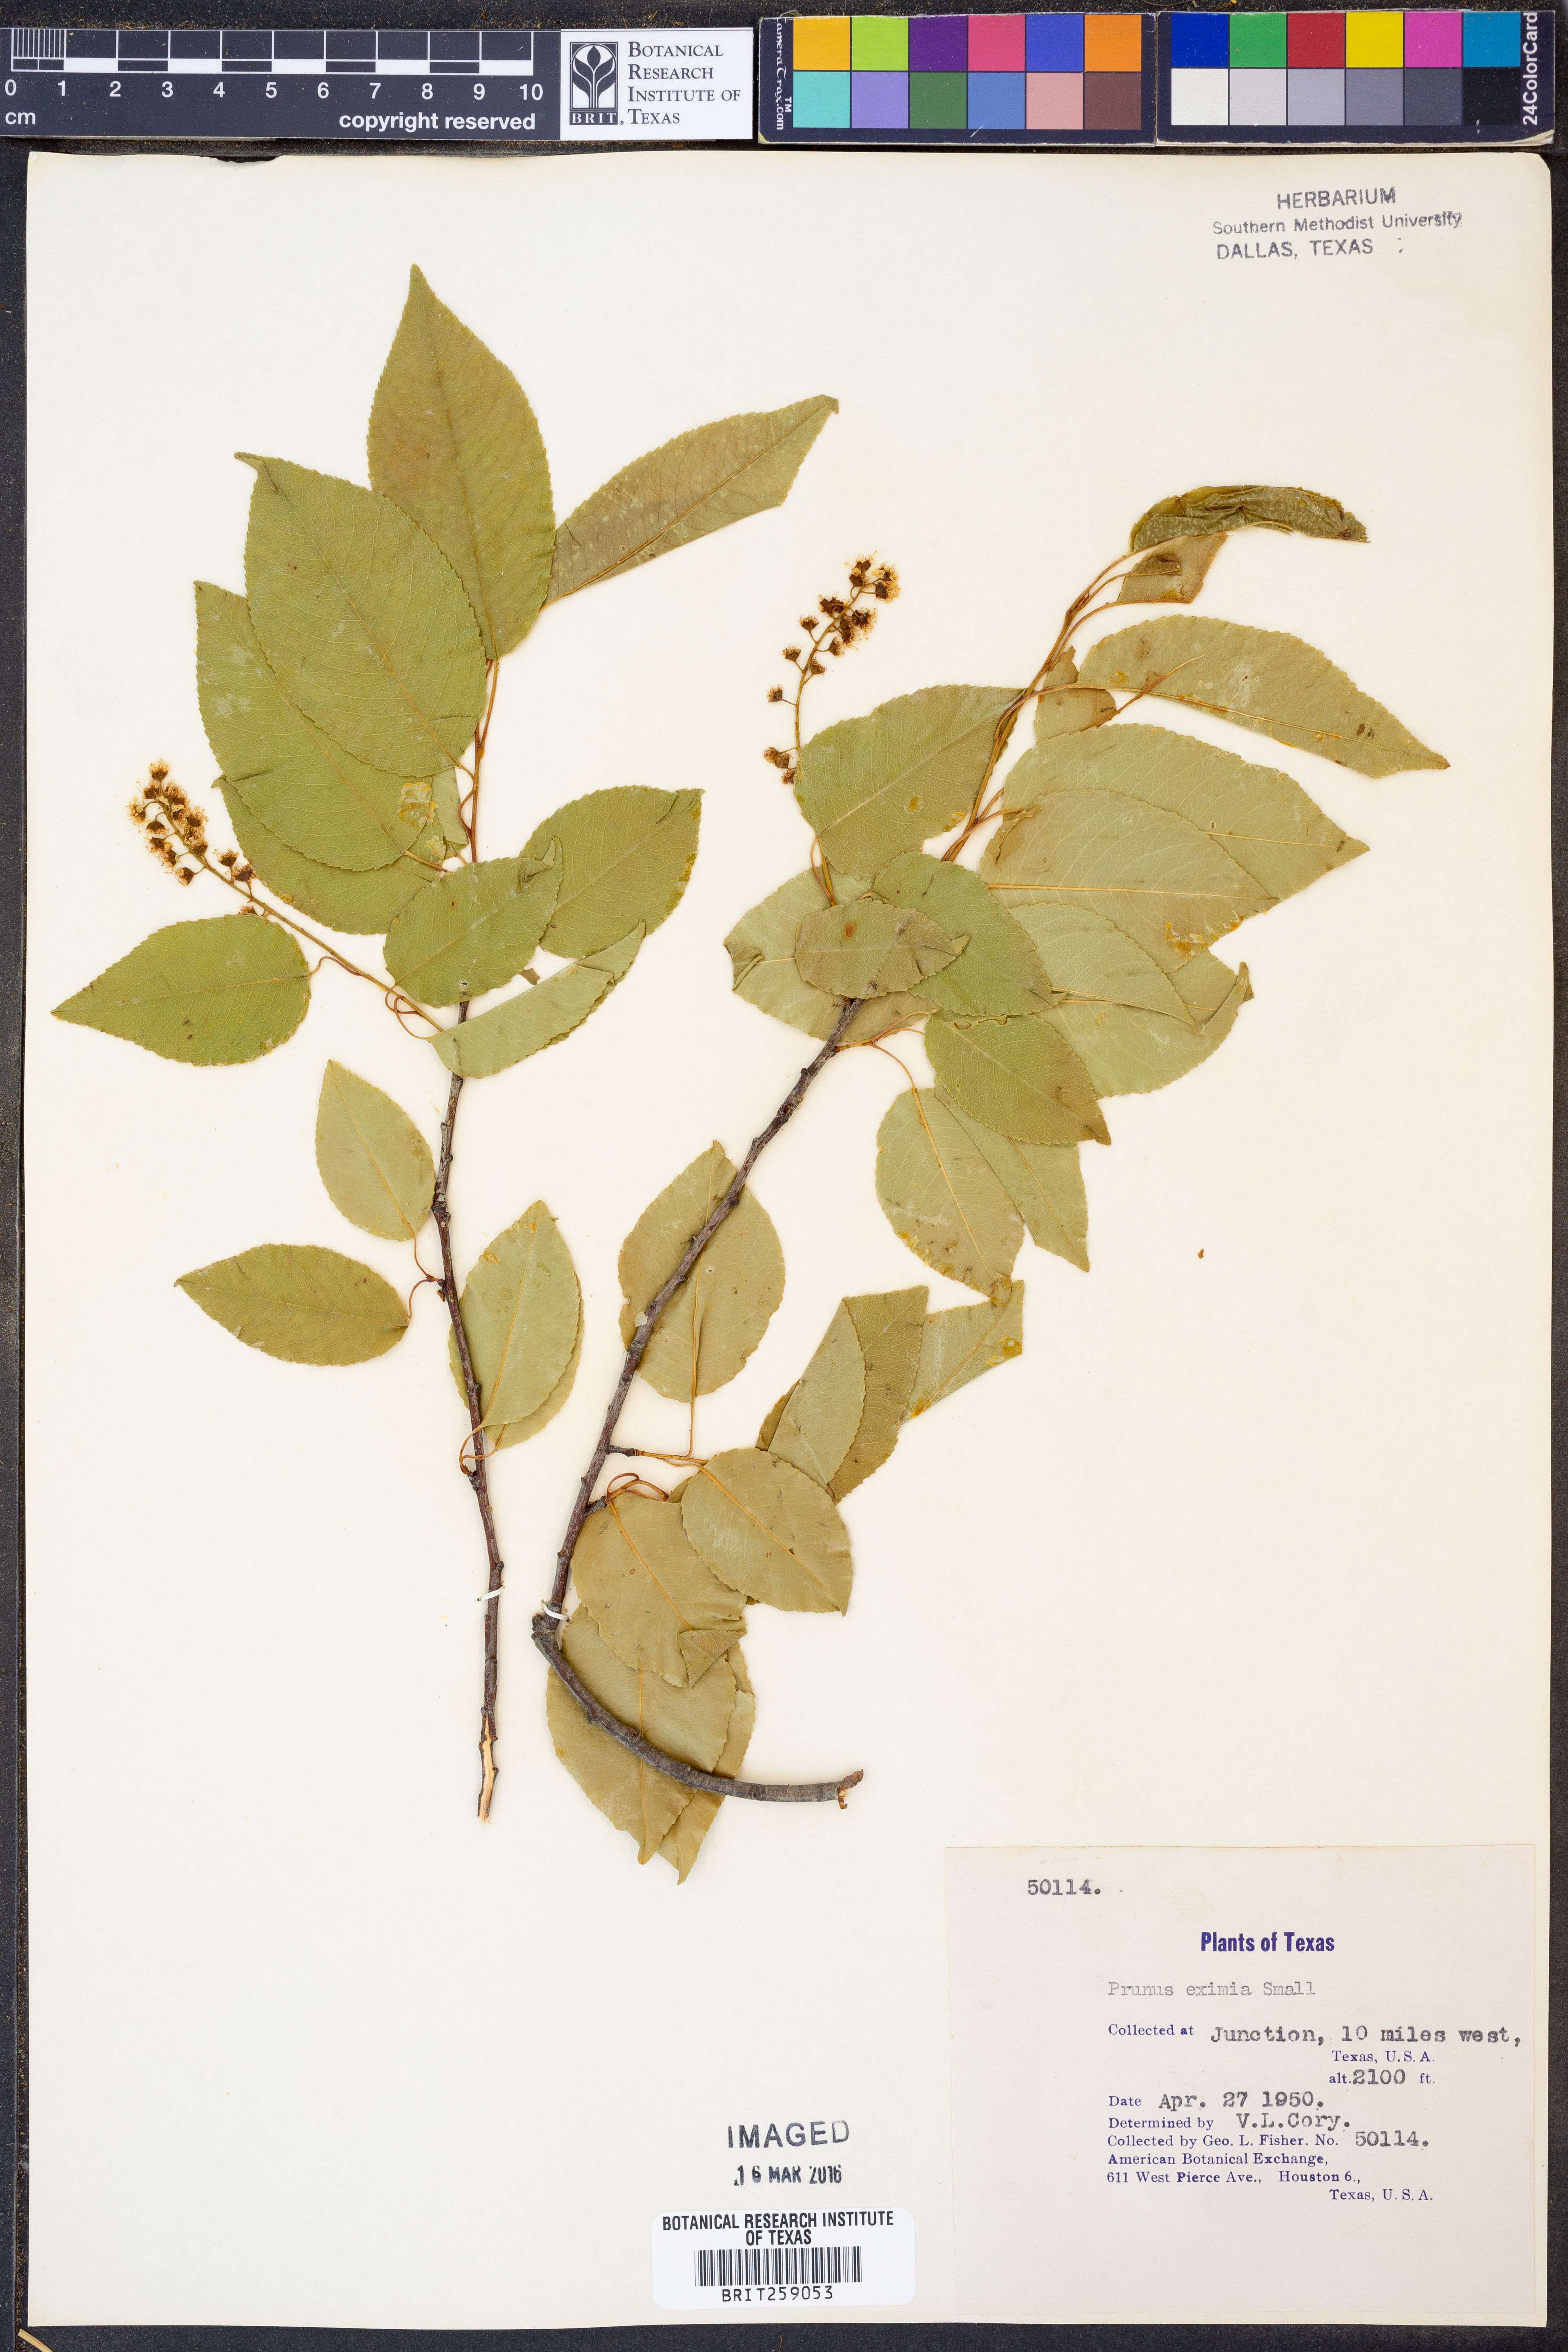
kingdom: Plantae
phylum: Tracheophyta
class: Magnoliopsida
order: Rosales
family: Rosaceae
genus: Prunus
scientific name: Prunus serotina
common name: Black cherry
